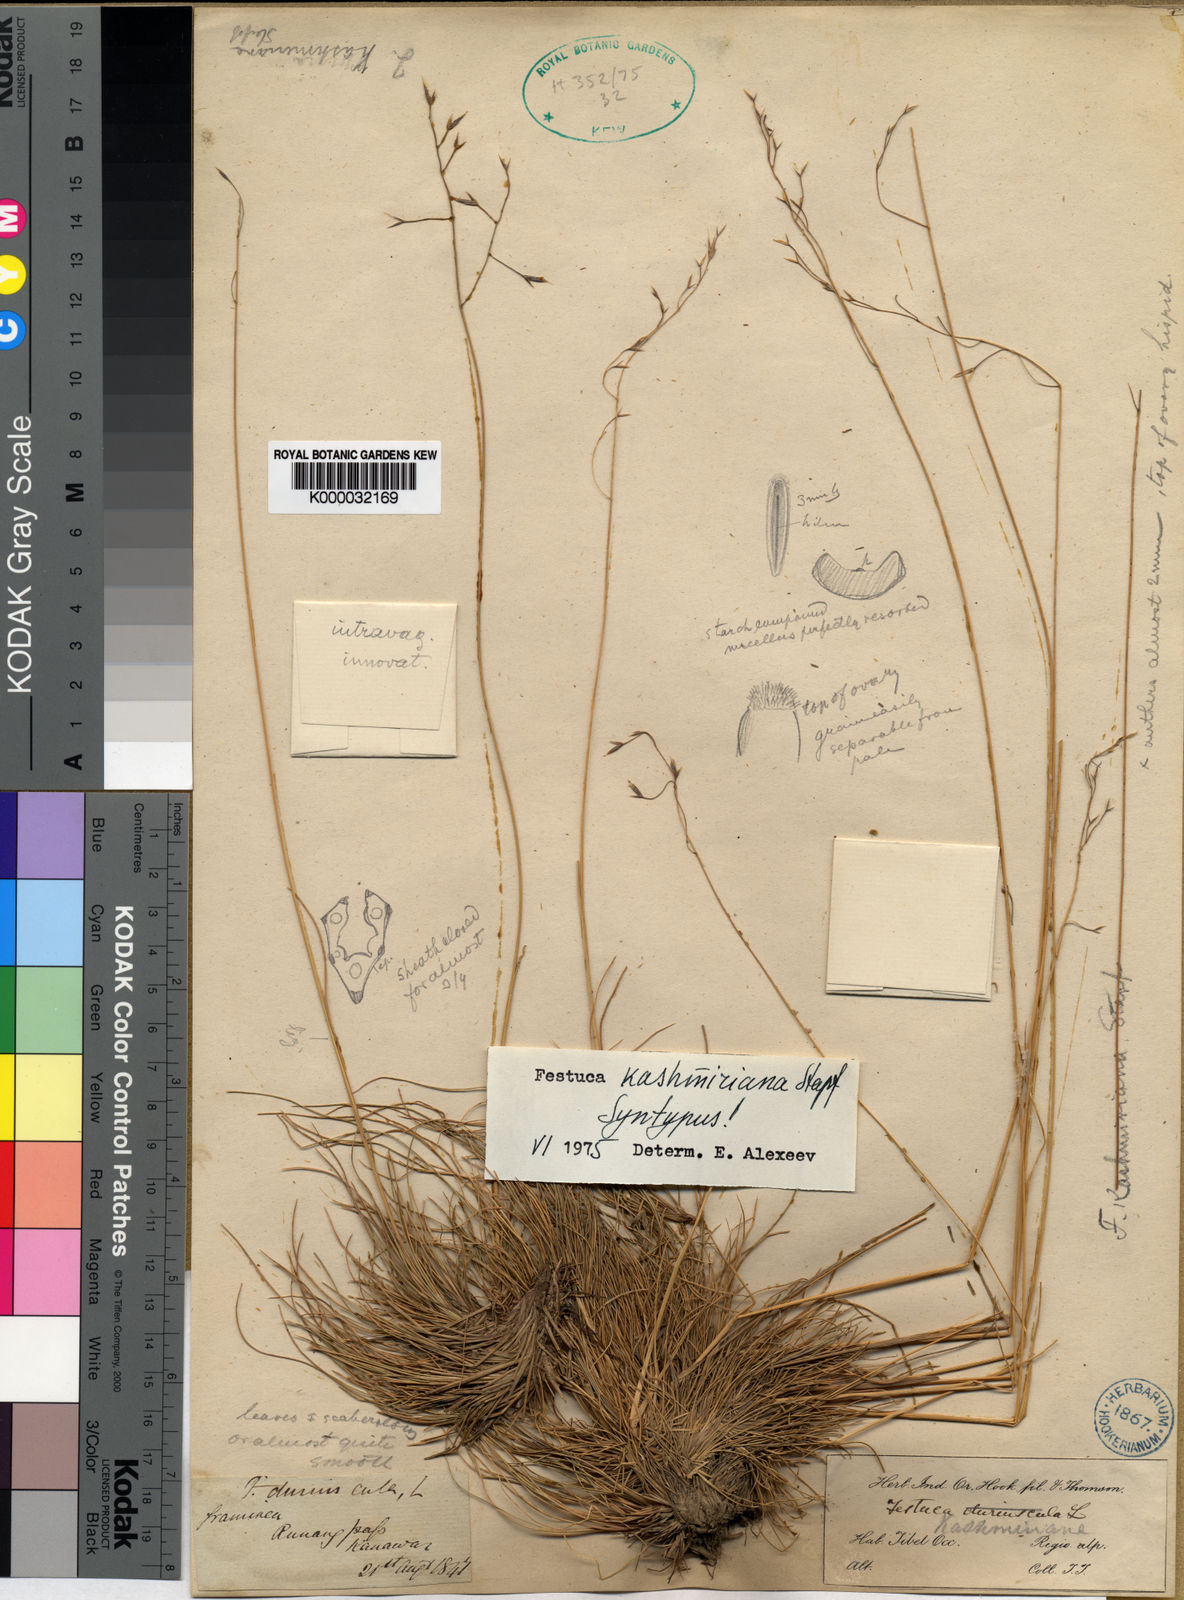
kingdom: Plantae
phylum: Tracheophyta
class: Liliopsida
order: Poales
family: Poaceae
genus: Festuca
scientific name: Festuca kashmiriana
